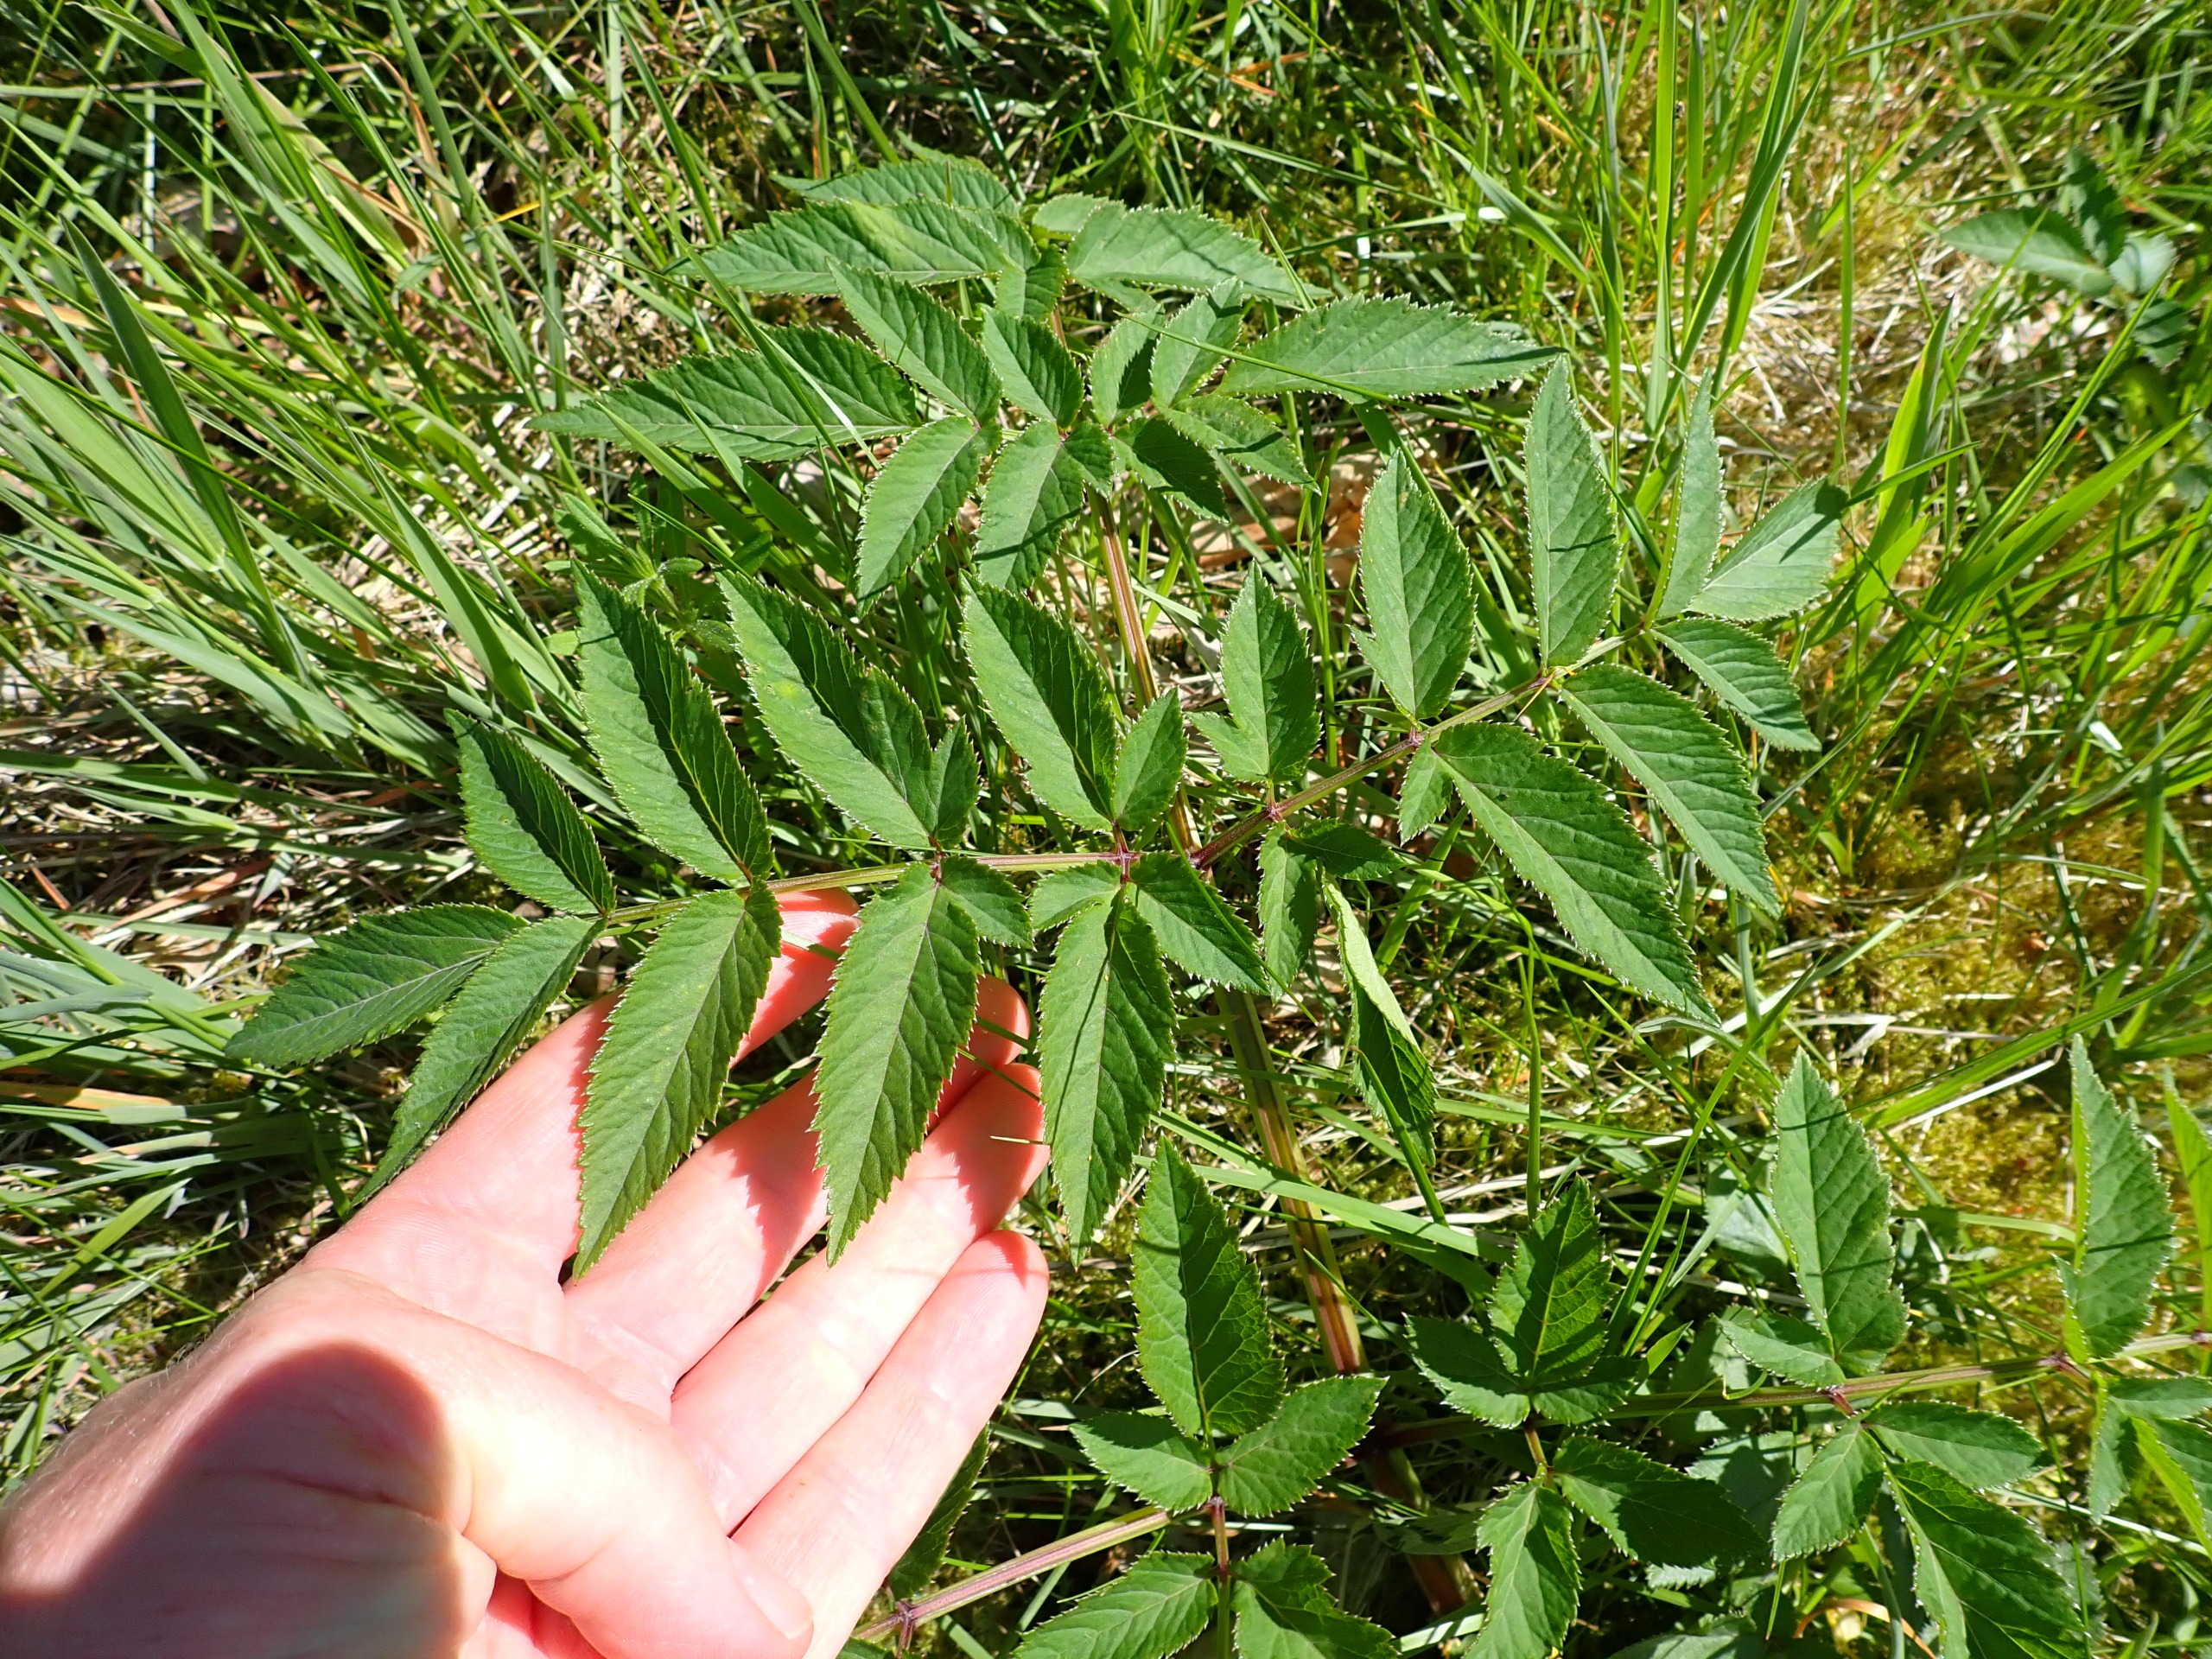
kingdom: Plantae
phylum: Tracheophyta
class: Magnoliopsida
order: Apiales
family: Apiaceae
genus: Angelica
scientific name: Angelica sylvestris
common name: Angelik
